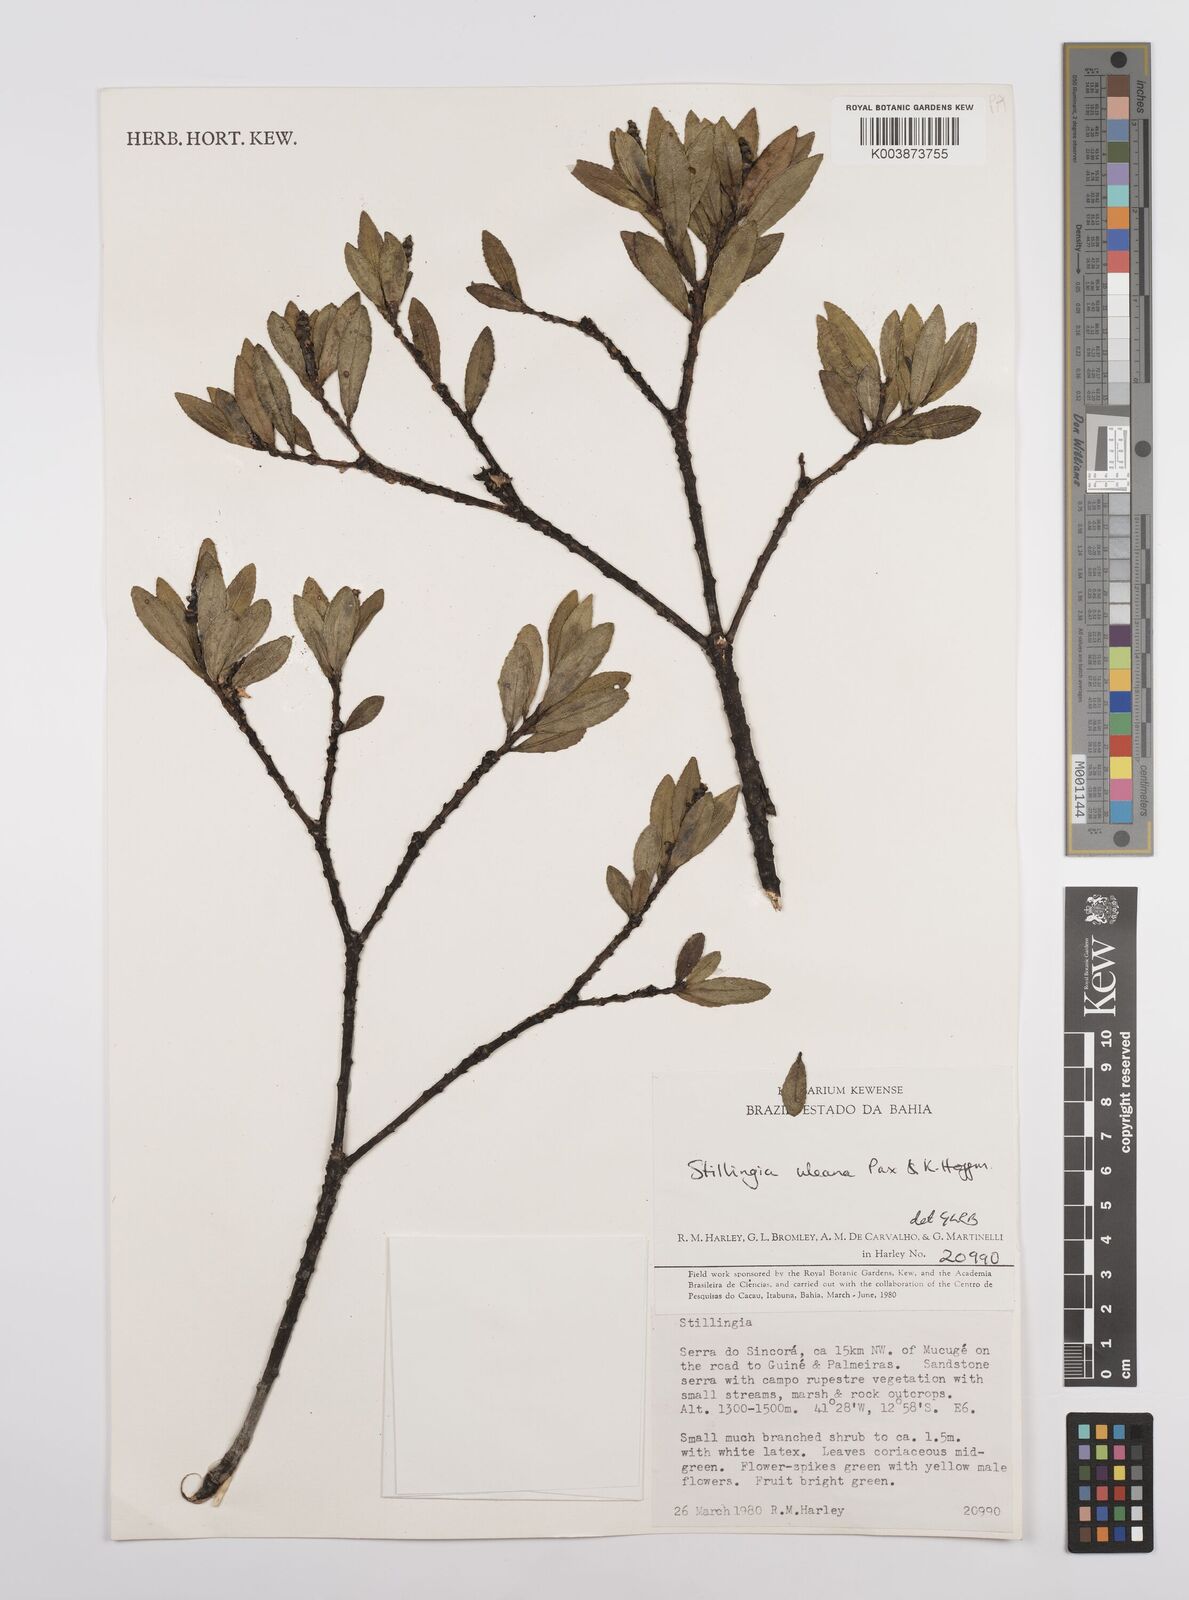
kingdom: Plantae
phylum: Tracheophyta
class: Magnoliopsida
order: Malpighiales
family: Euphorbiaceae
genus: Stillingia
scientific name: Stillingia uleana
